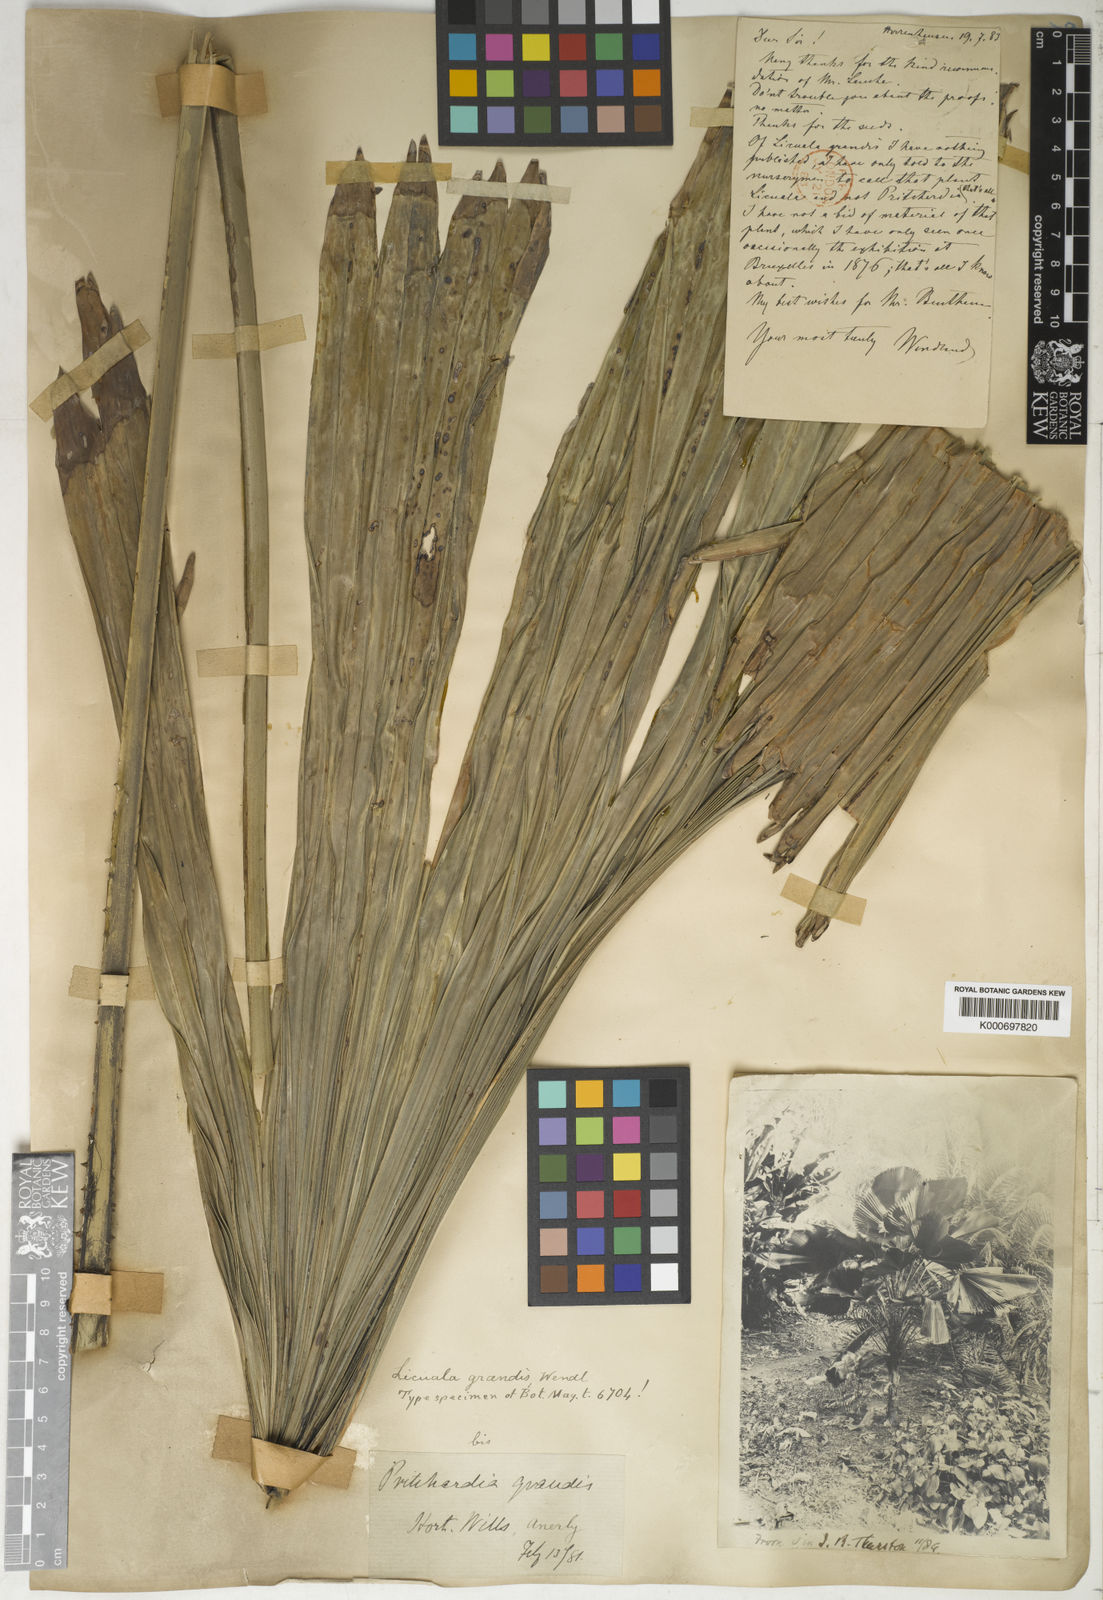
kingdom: Plantae
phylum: Tracheophyta
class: Liliopsida
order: Arecales
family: Arecaceae
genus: Licuala
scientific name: Licuala grandis
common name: Ruffled fan palm
